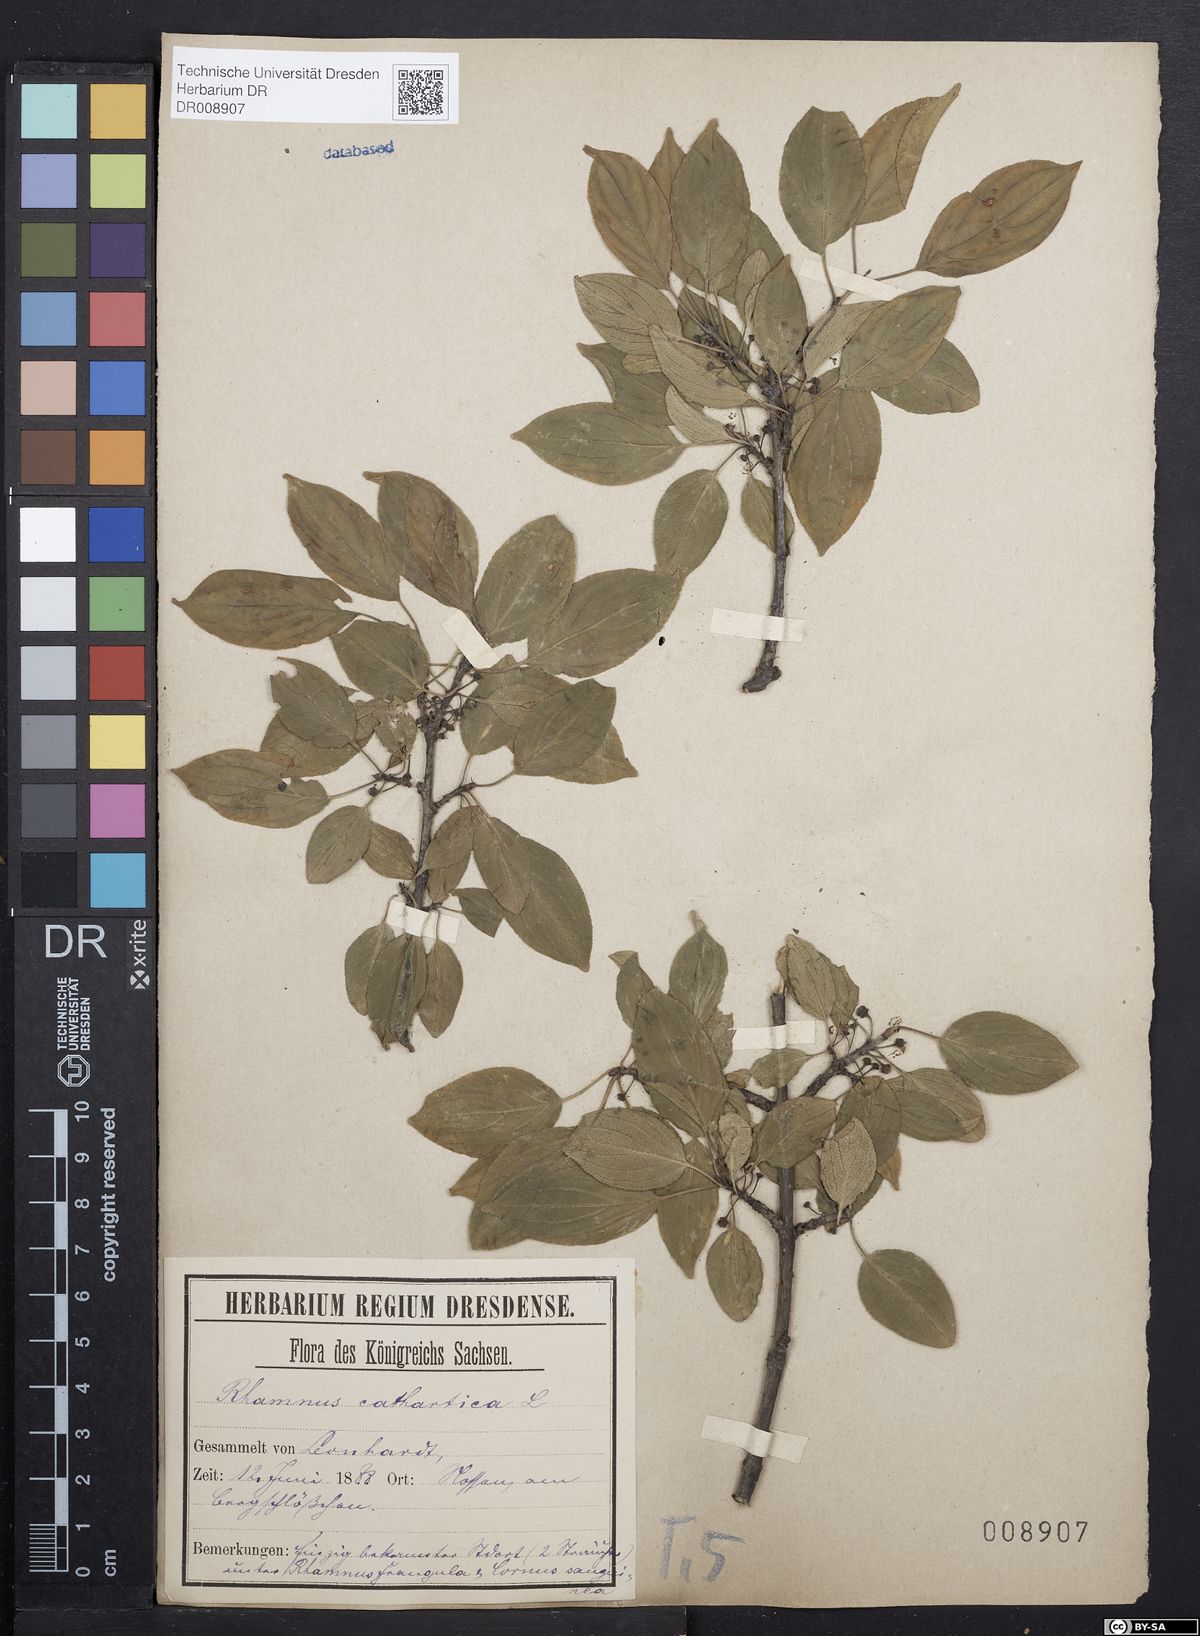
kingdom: Plantae
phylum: Tracheophyta
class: Magnoliopsida
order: Rosales
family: Rhamnaceae
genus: Rhamnus
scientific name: Rhamnus cathartica
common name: Common buckthorn
